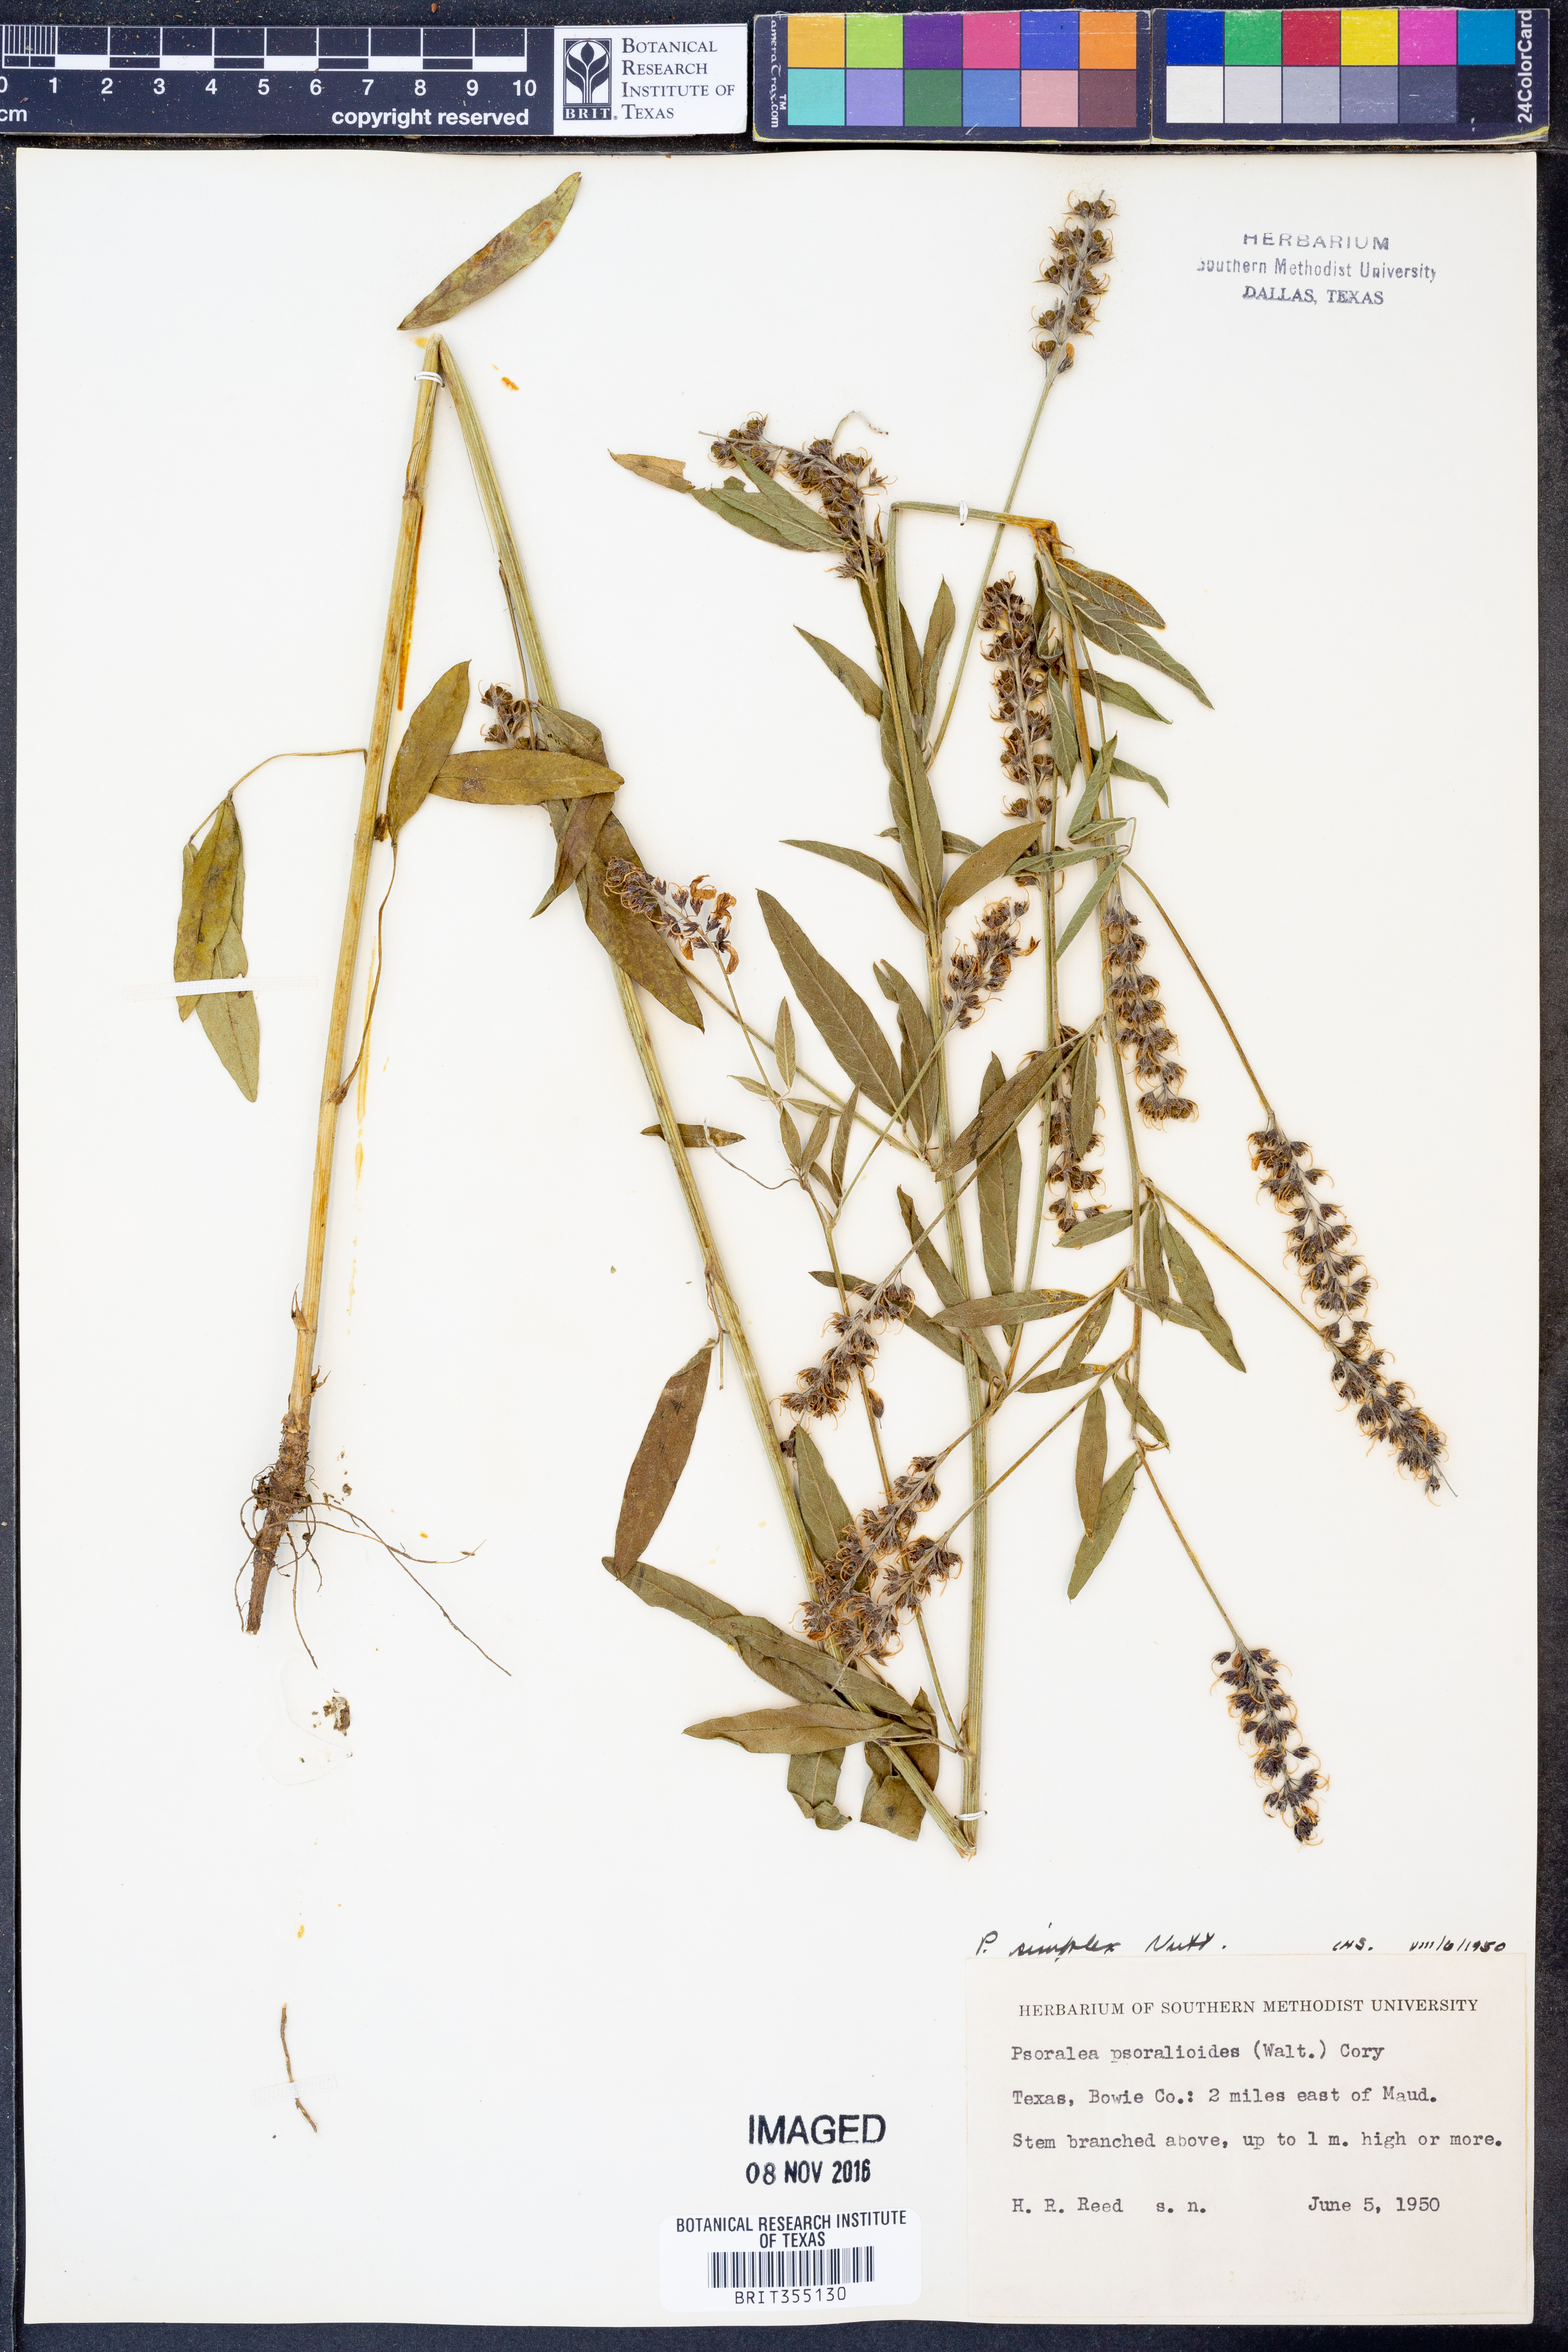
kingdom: Plantae
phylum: Tracheophyta
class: Magnoliopsida
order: Fabales
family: Fabaceae
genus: Orbexilum
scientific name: Orbexilum simplex
